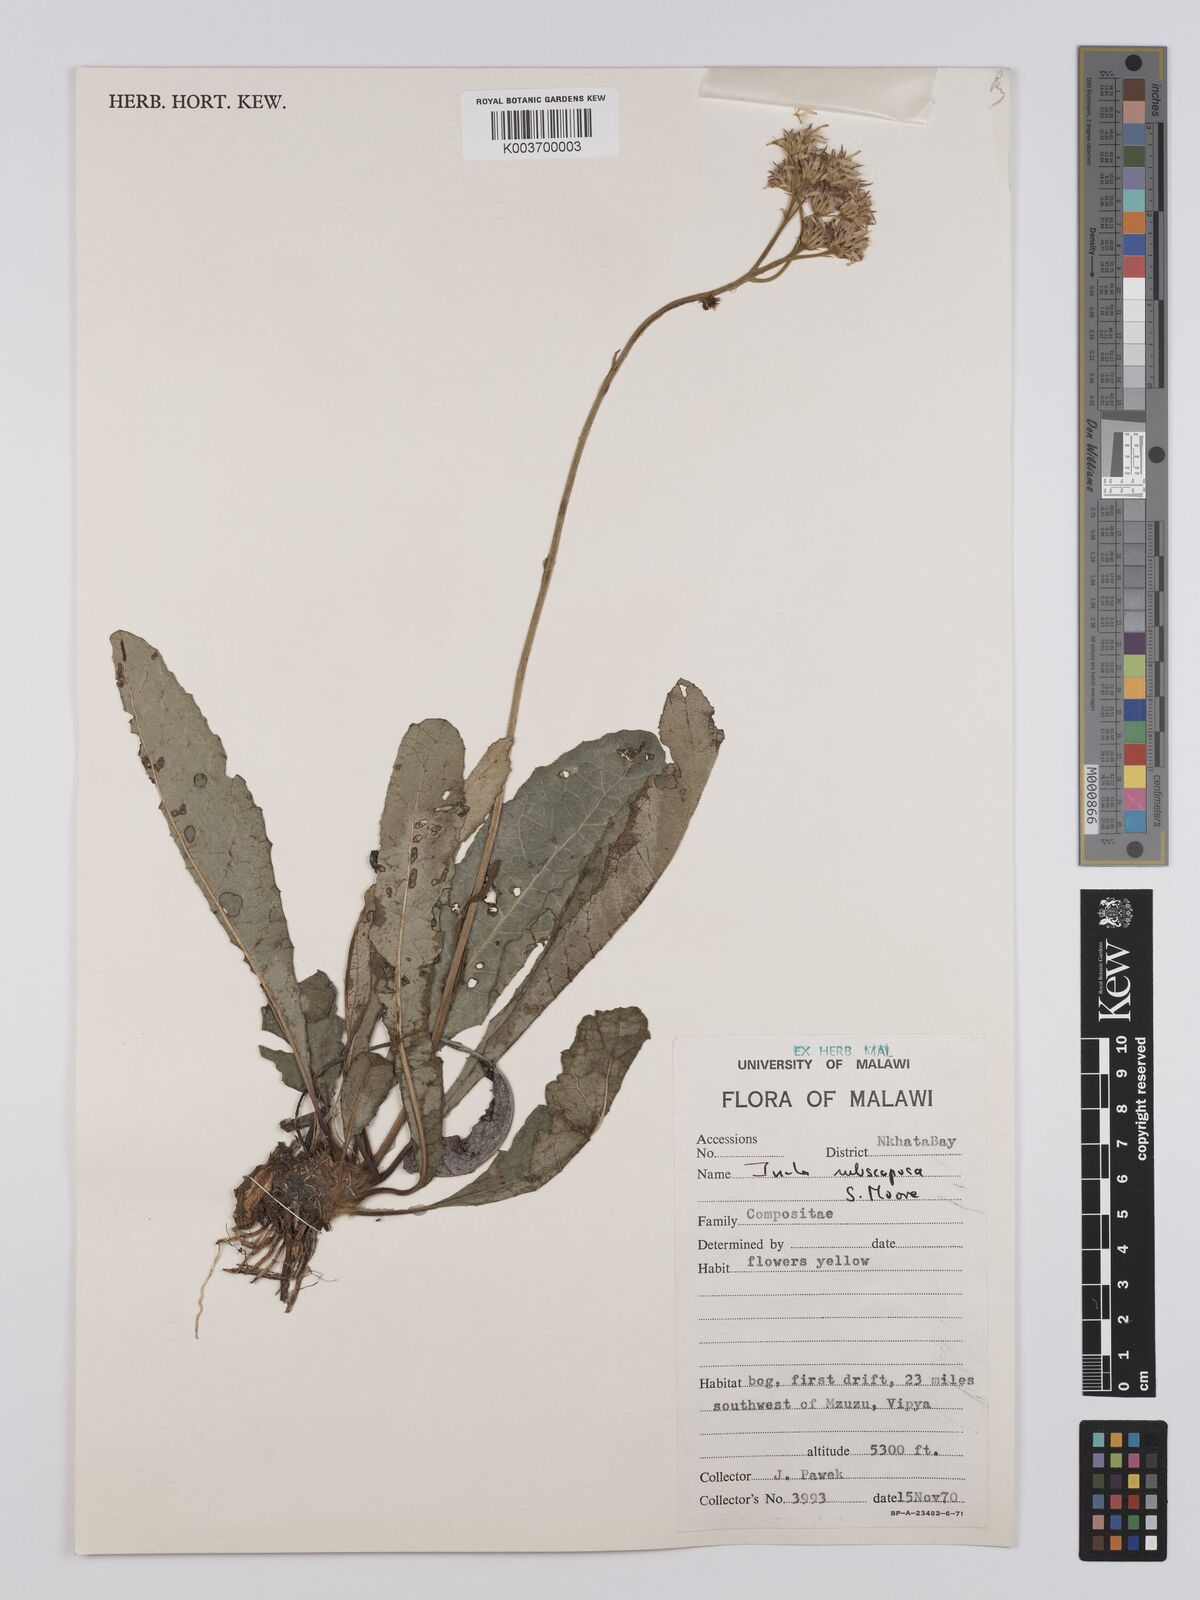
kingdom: Plantae
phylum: Tracheophyta
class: Magnoliopsida
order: Asterales
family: Asteraceae
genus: Monactinocephalus
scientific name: Monactinocephalus paniculatus
